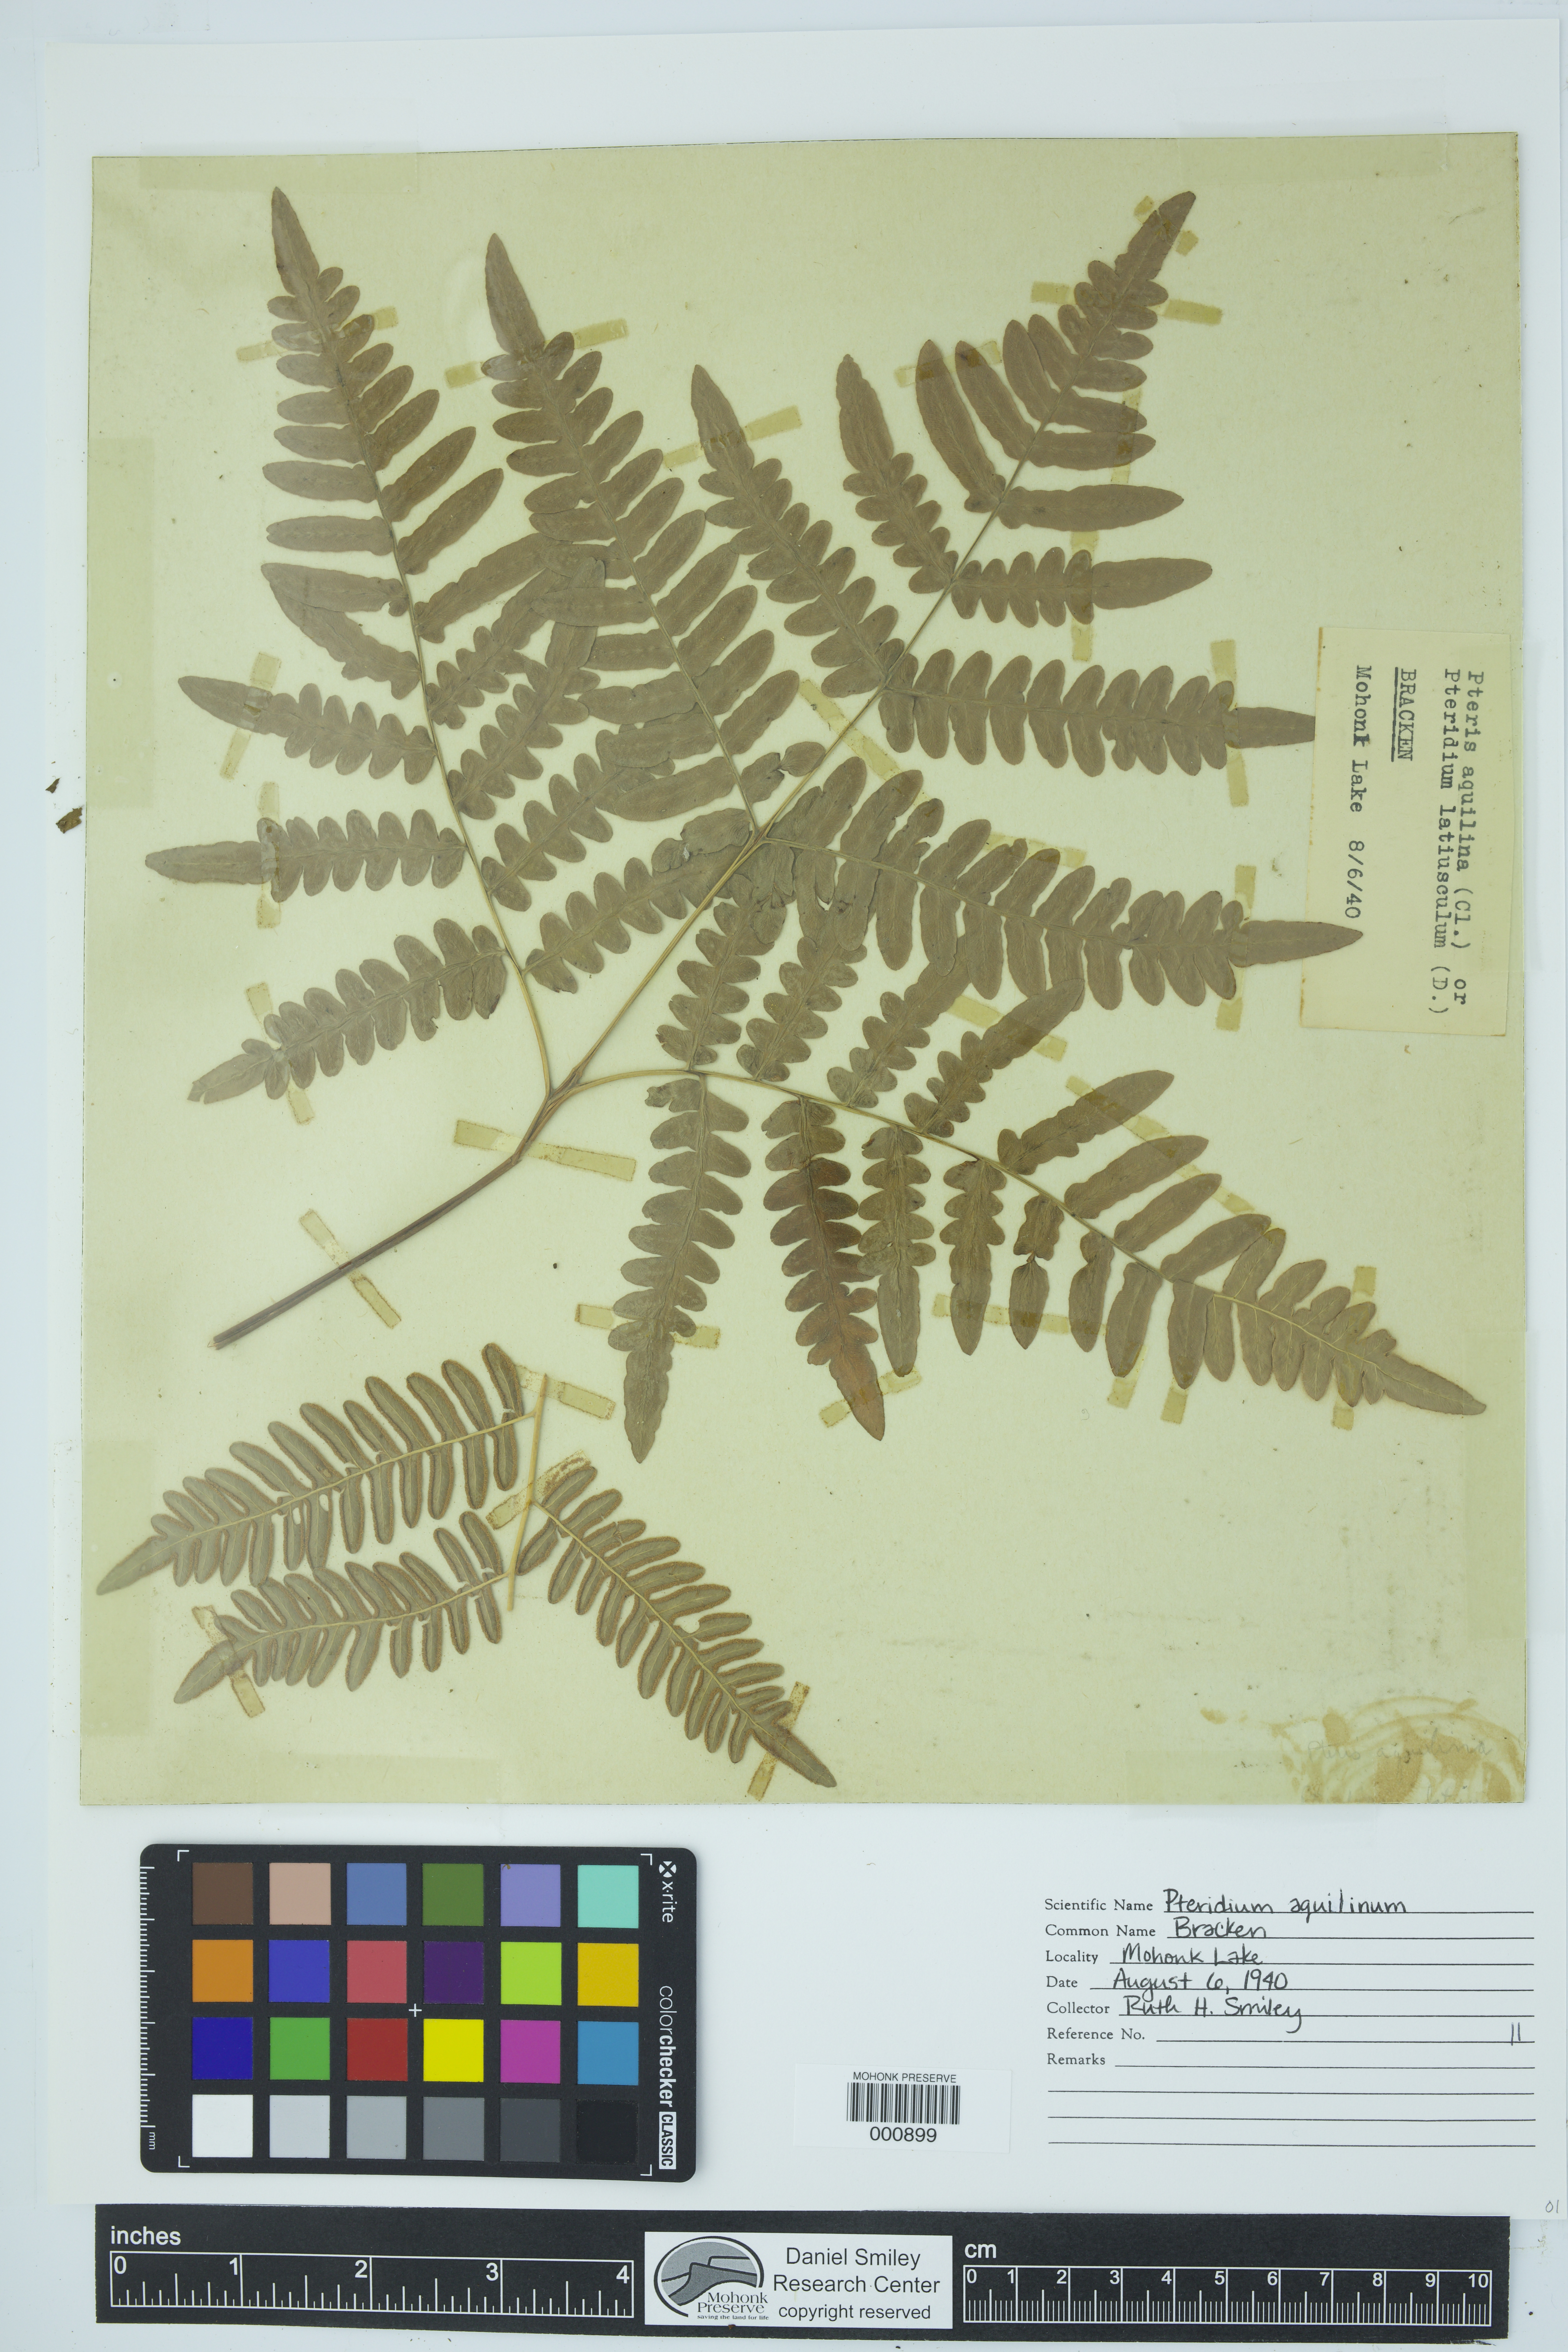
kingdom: Plantae
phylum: Tracheophyta
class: Polypodiopsida
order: Polypodiales
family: Dennstaedtiaceae
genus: Pteridium
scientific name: Pteridium aquilinum
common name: Bracken
